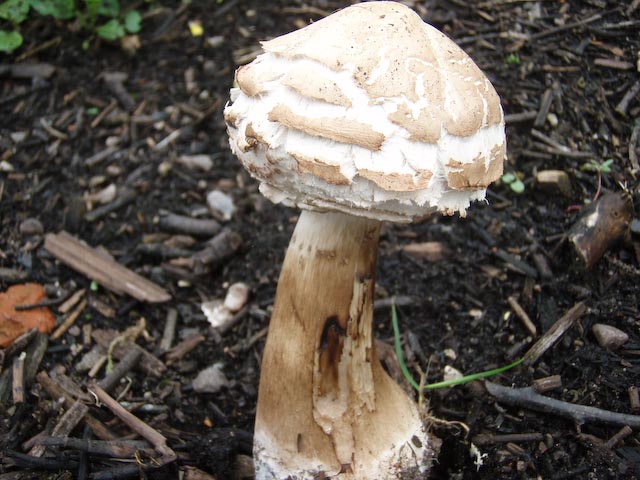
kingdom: Fungi
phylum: Basidiomycota
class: Agaricomycetes
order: Agaricales
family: Agaricaceae
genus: Chlorophyllum
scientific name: Chlorophyllum rhacodes
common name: ægte rabarberhat
